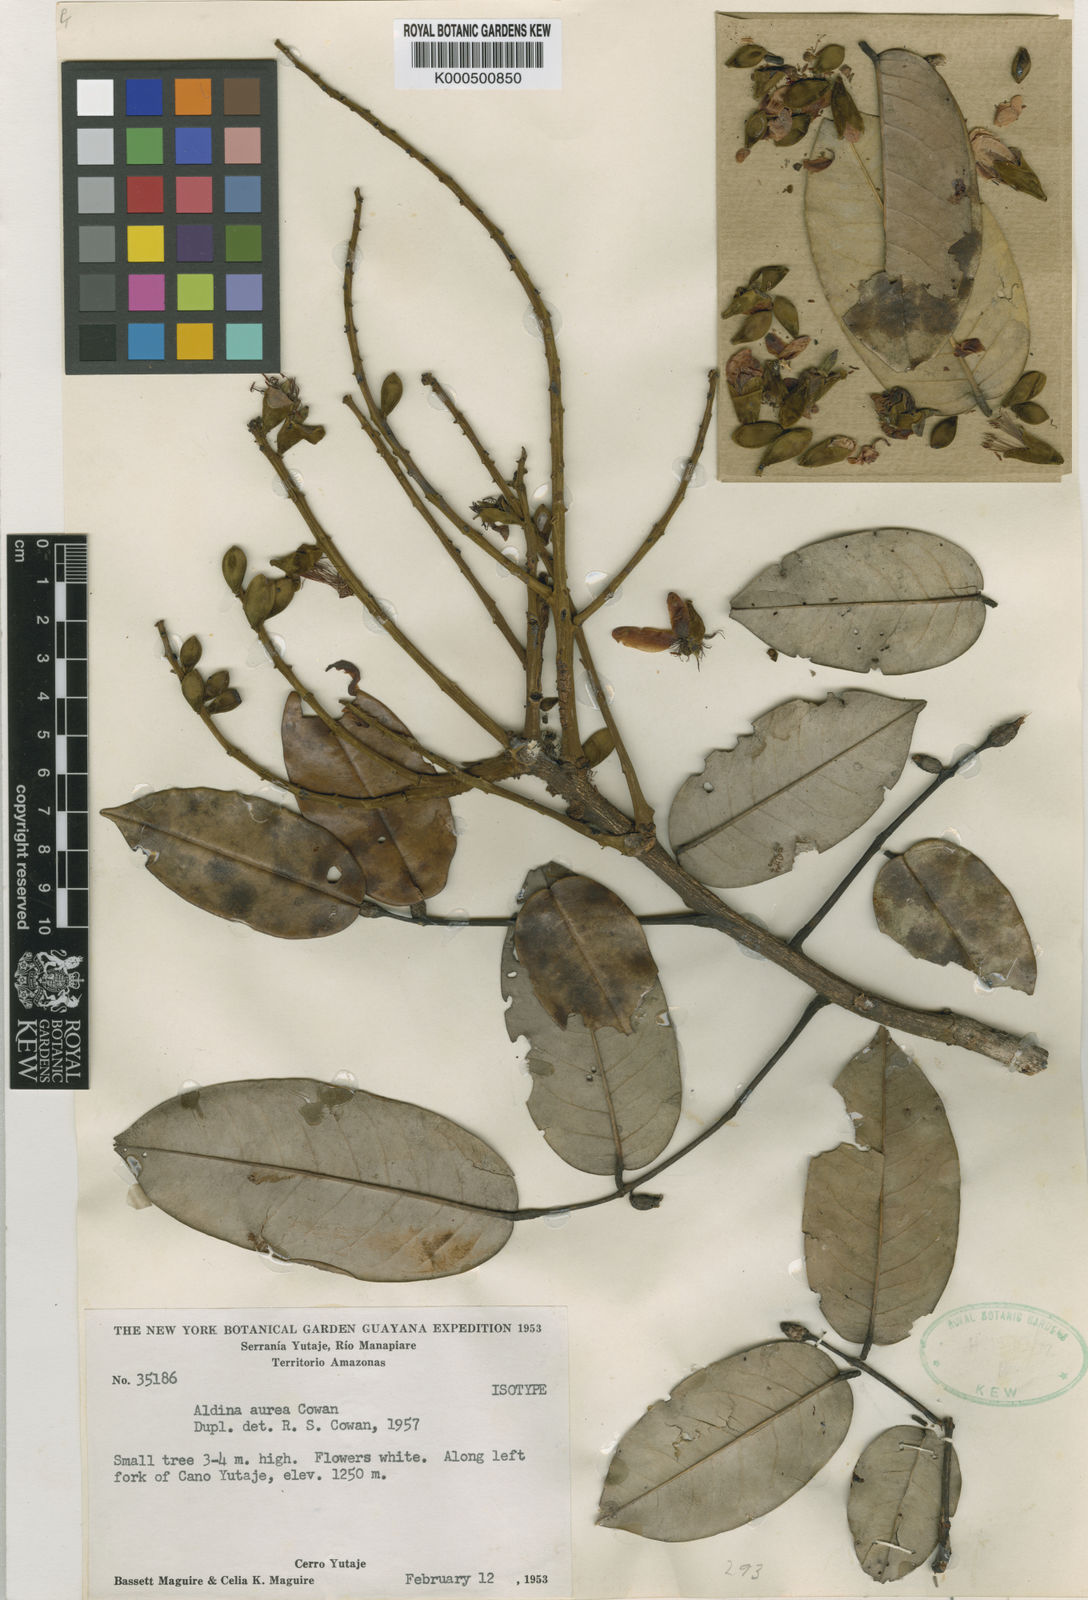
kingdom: Plantae
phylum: Tracheophyta
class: Magnoliopsida
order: Fabales
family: Fabaceae
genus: Aldina
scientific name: Aldina aurea
